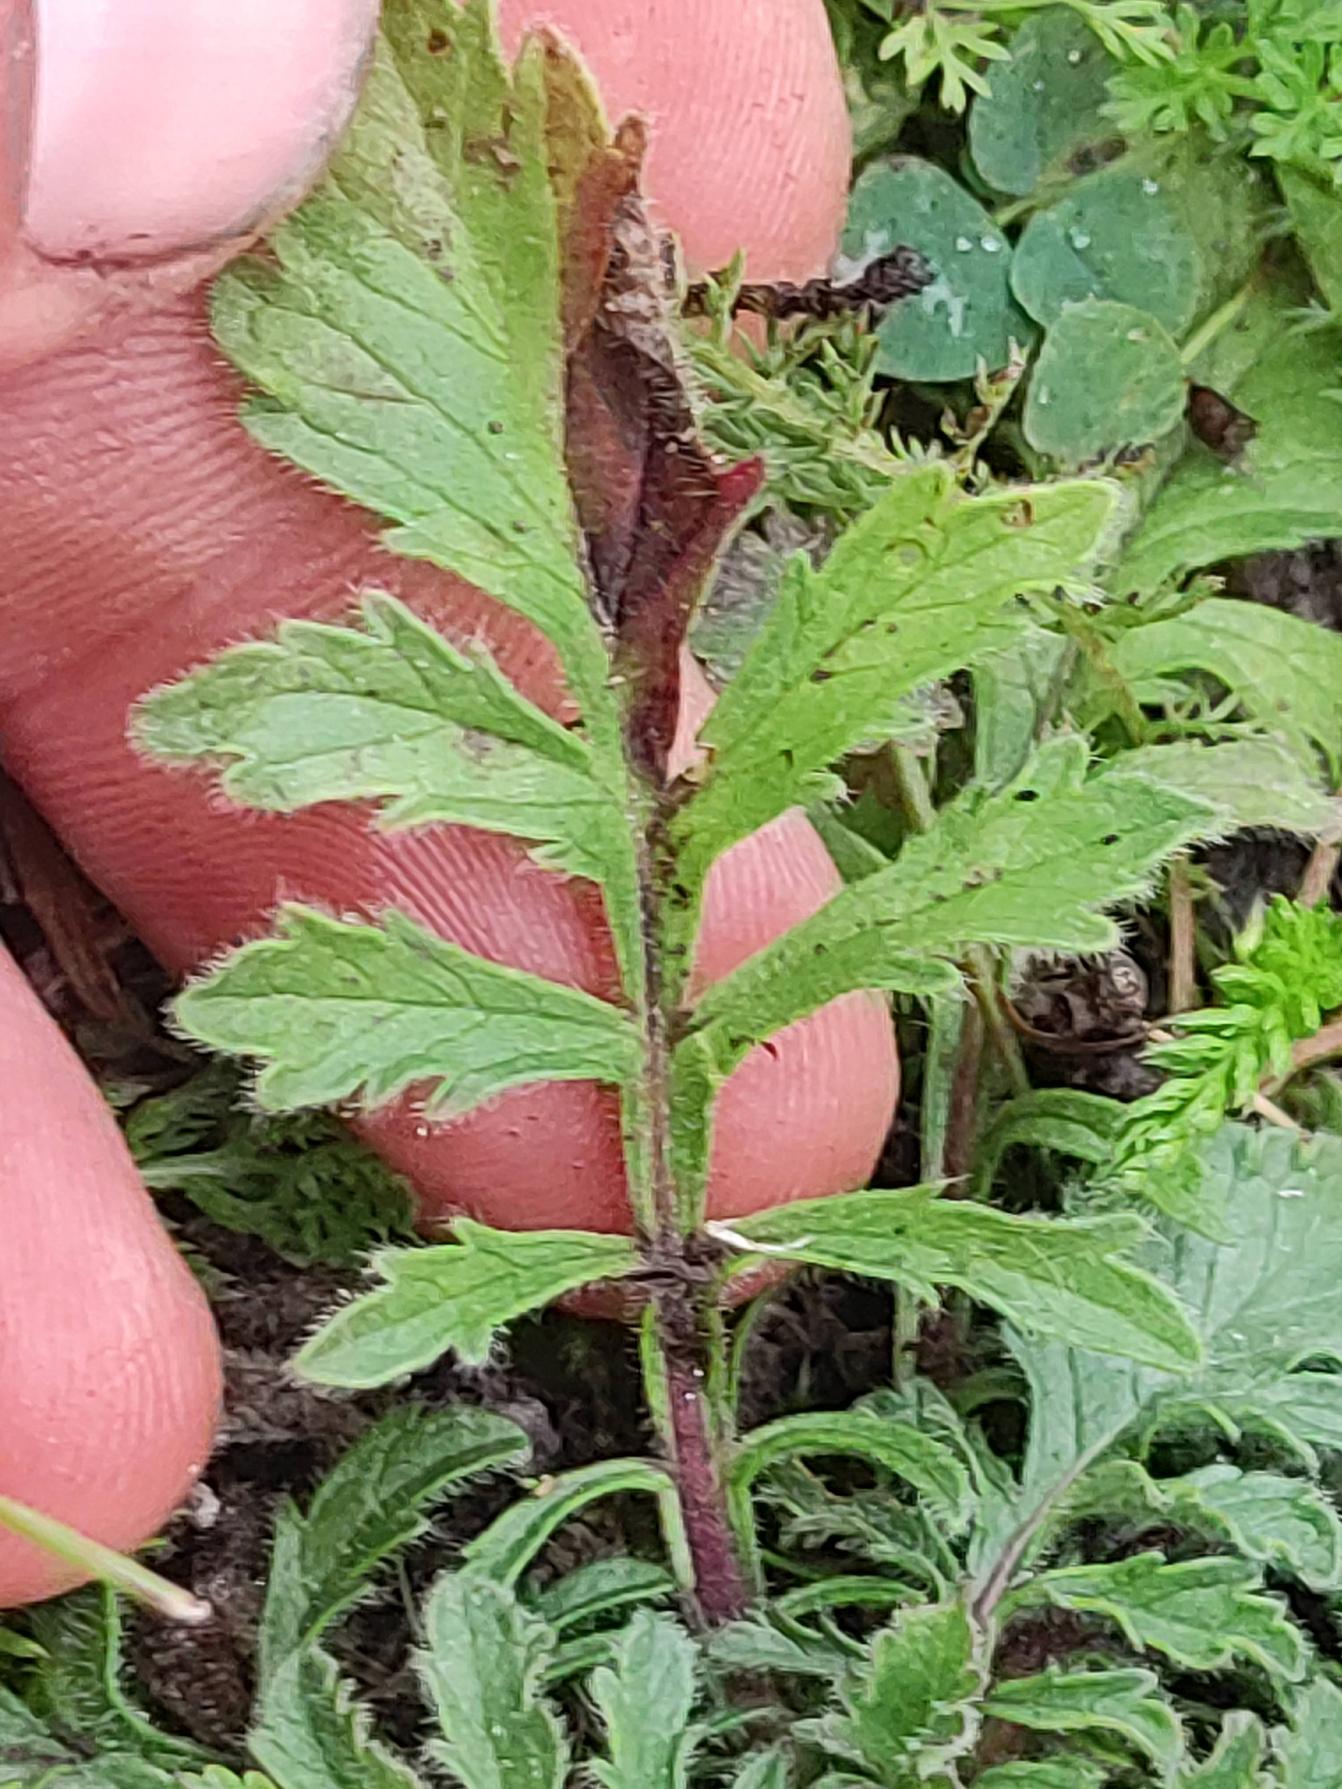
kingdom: Plantae
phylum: Tracheophyta
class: Magnoliopsida
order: Dipsacales
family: Caprifoliaceae
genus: Scabiosa
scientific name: Scabiosa columbaria
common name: Due-skabiose
